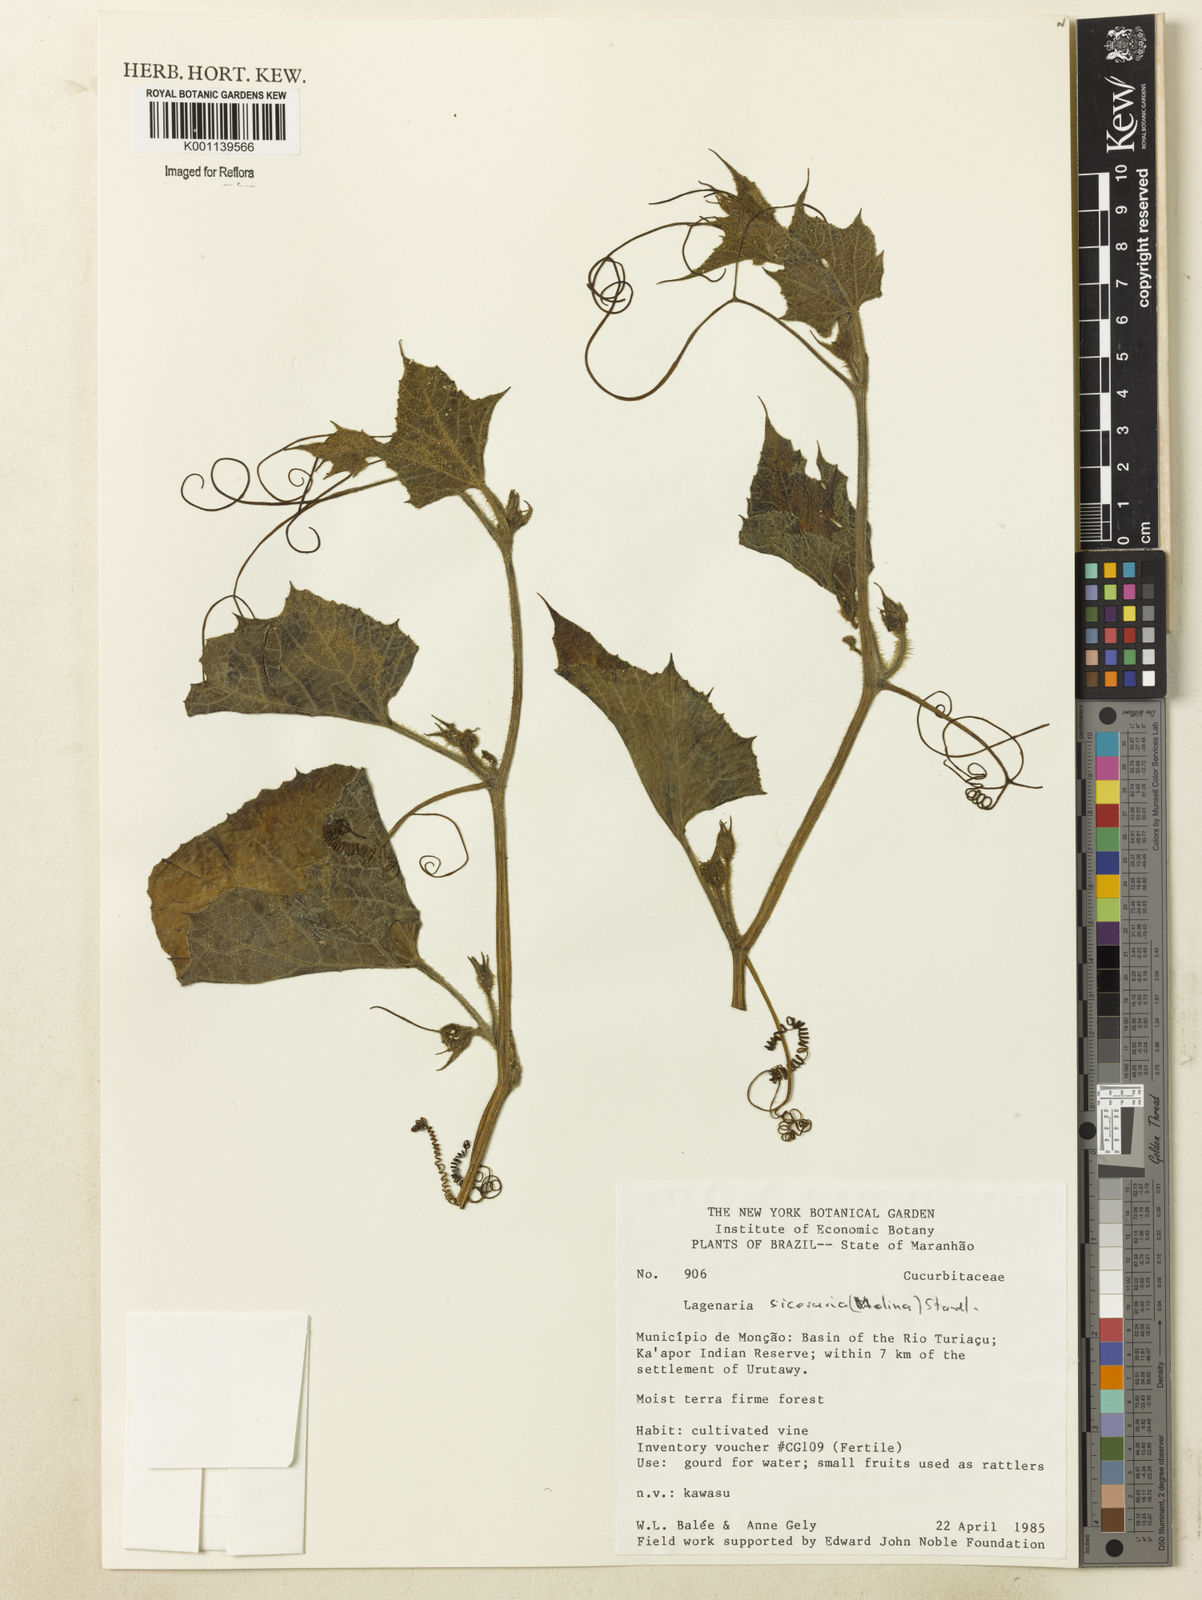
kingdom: Plantae
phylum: Tracheophyta
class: Magnoliopsida
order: Cucurbitales
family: Cucurbitaceae
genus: Lagenaria
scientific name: Lagenaria siceraria
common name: Bottle gourd
